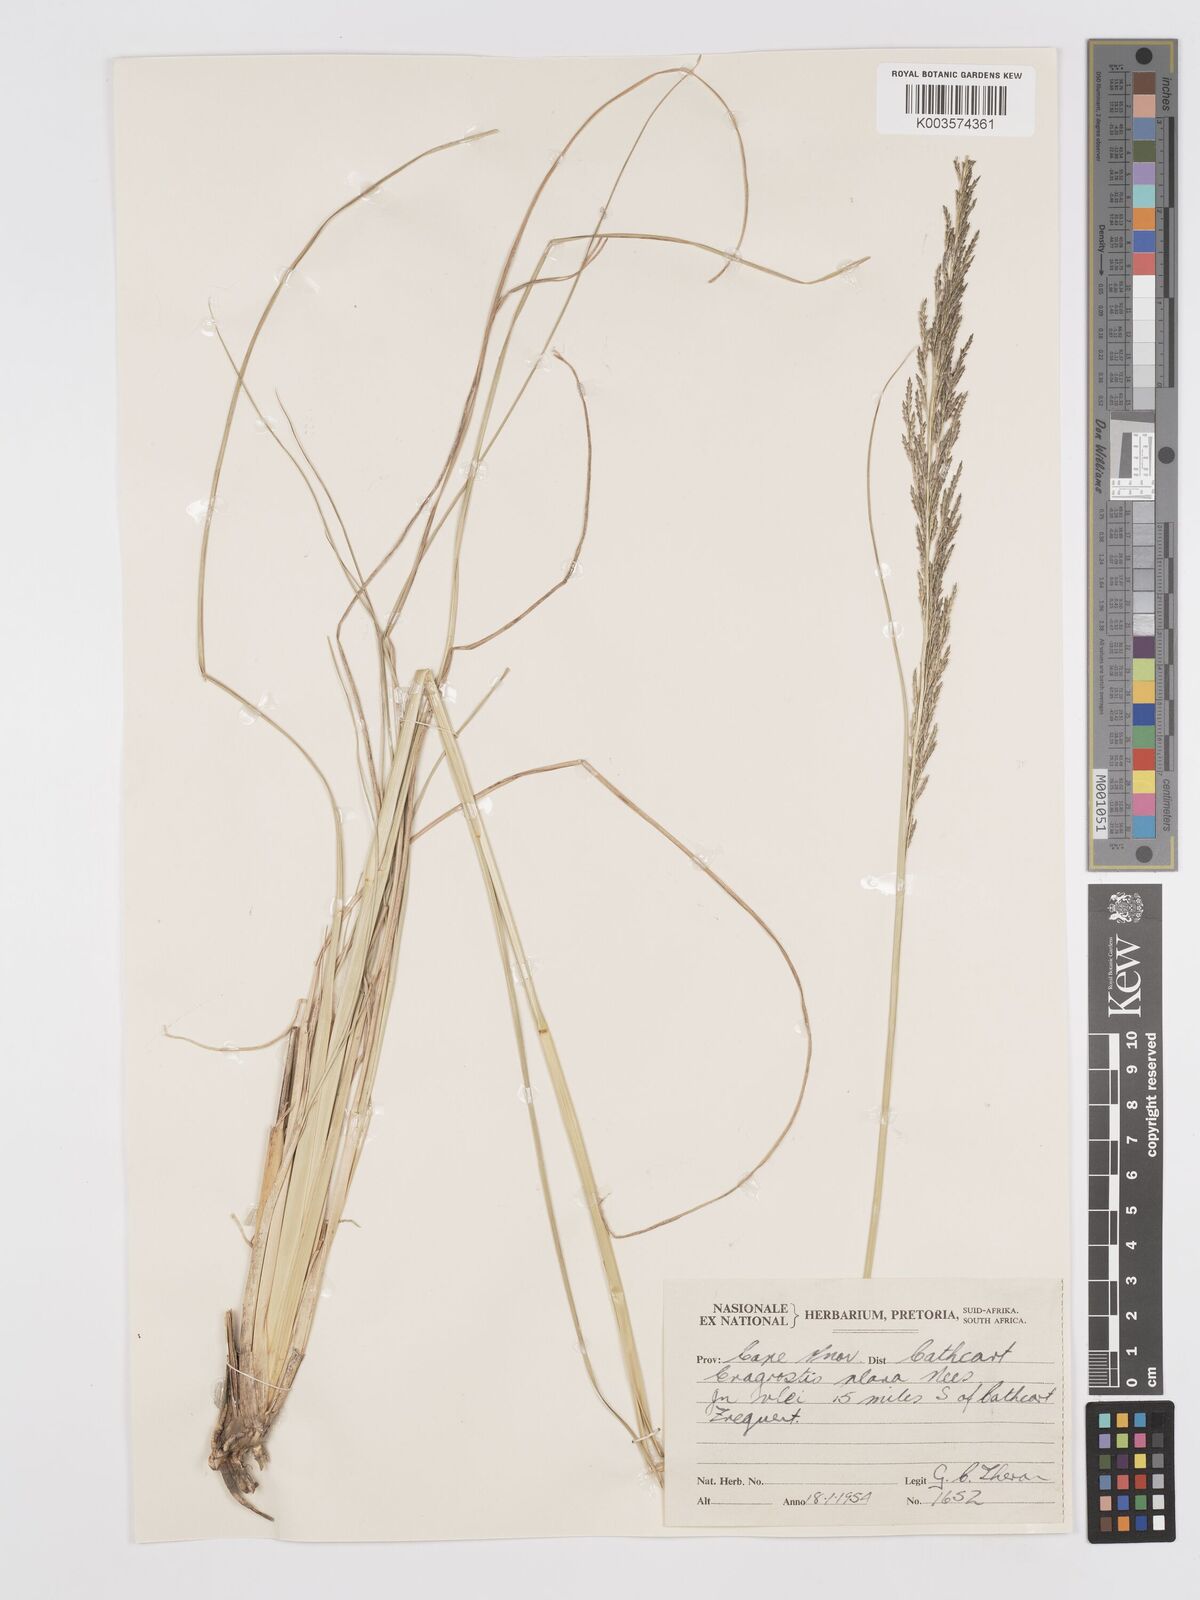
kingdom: Plantae
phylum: Tracheophyta
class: Liliopsida
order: Poales
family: Poaceae
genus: Eragrostis
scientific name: Eragrostis plana
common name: South african lovegrass
